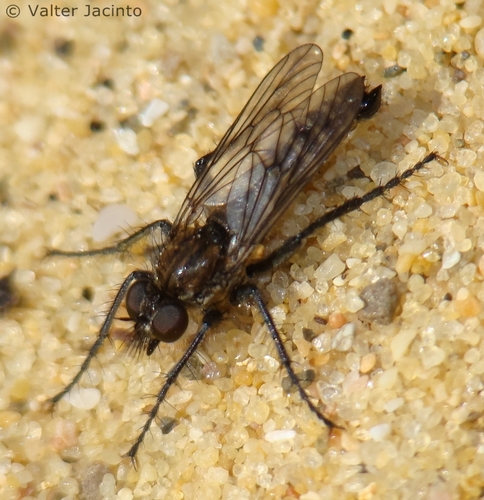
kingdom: Animalia
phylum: Arthropoda
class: Insecta
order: Diptera
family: Asilidae
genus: Lasiopogon
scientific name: Lasiopogon
